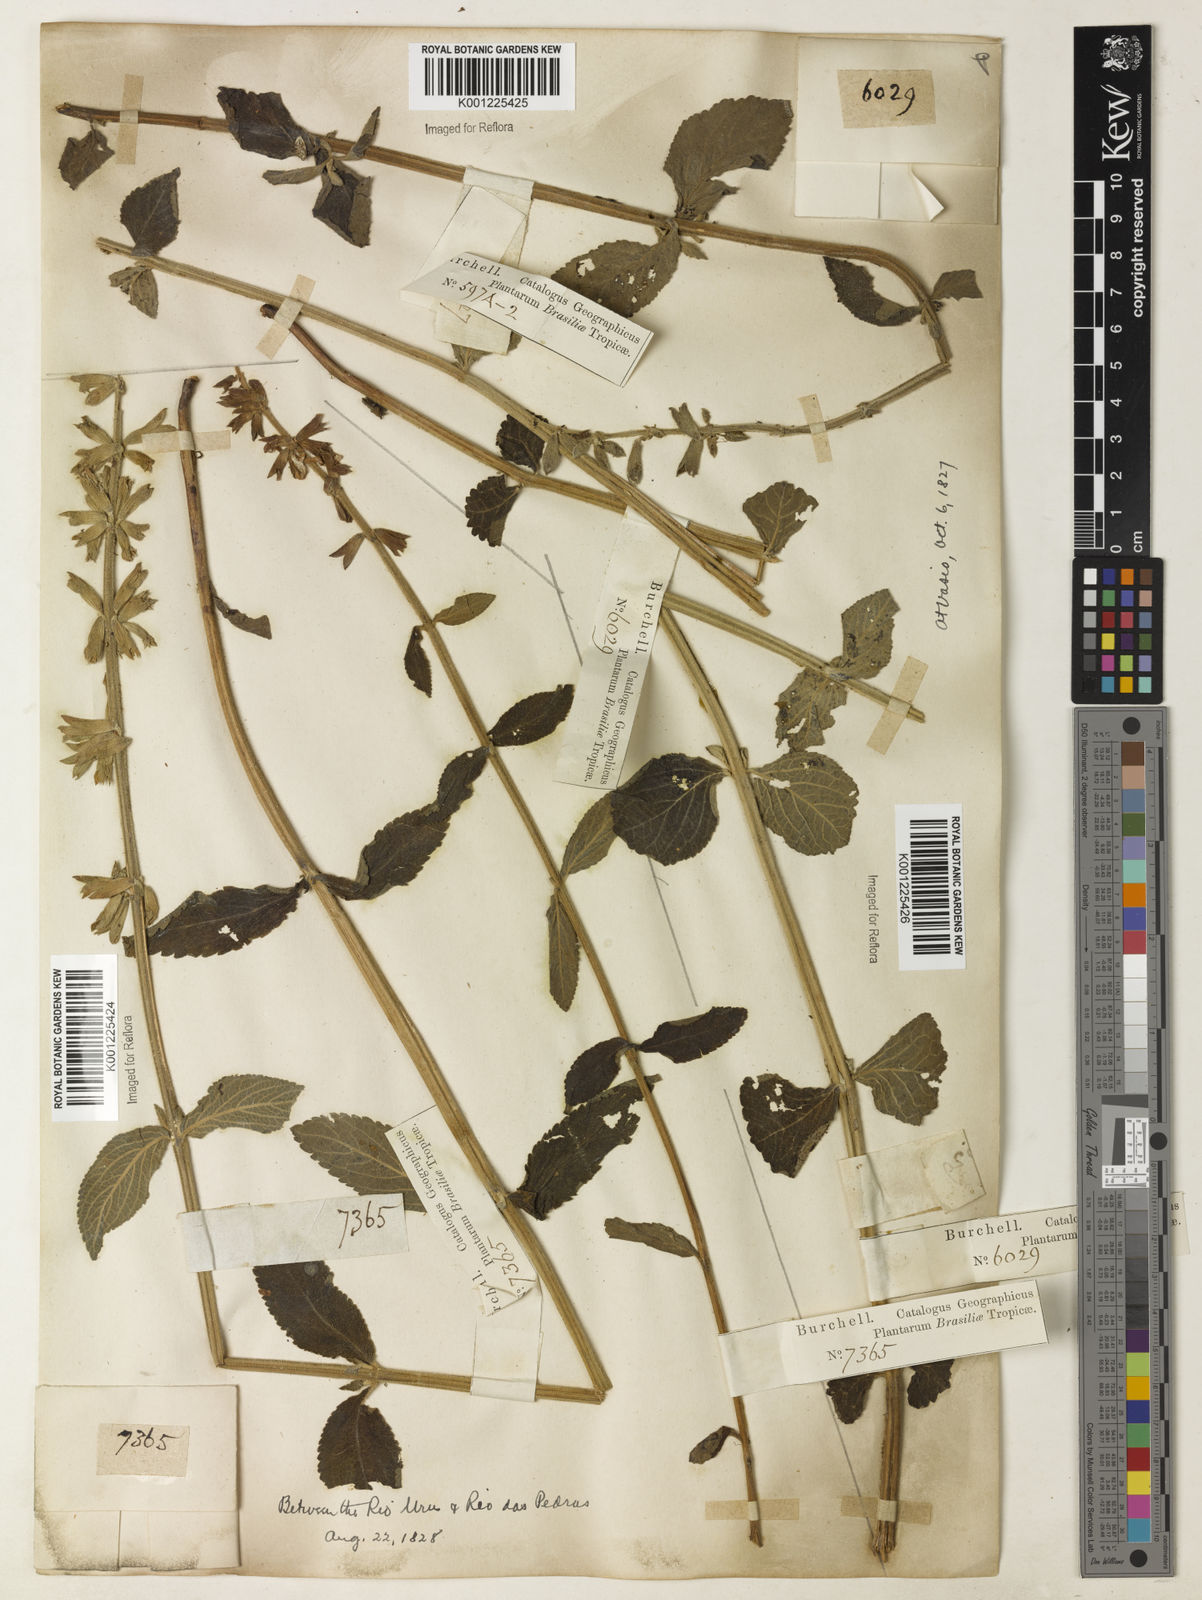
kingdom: Plantae
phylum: Tracheophyta
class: Magnoliopsida
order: Lamiales
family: Lamiaceae
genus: Salvia
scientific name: Salvia tomentella
